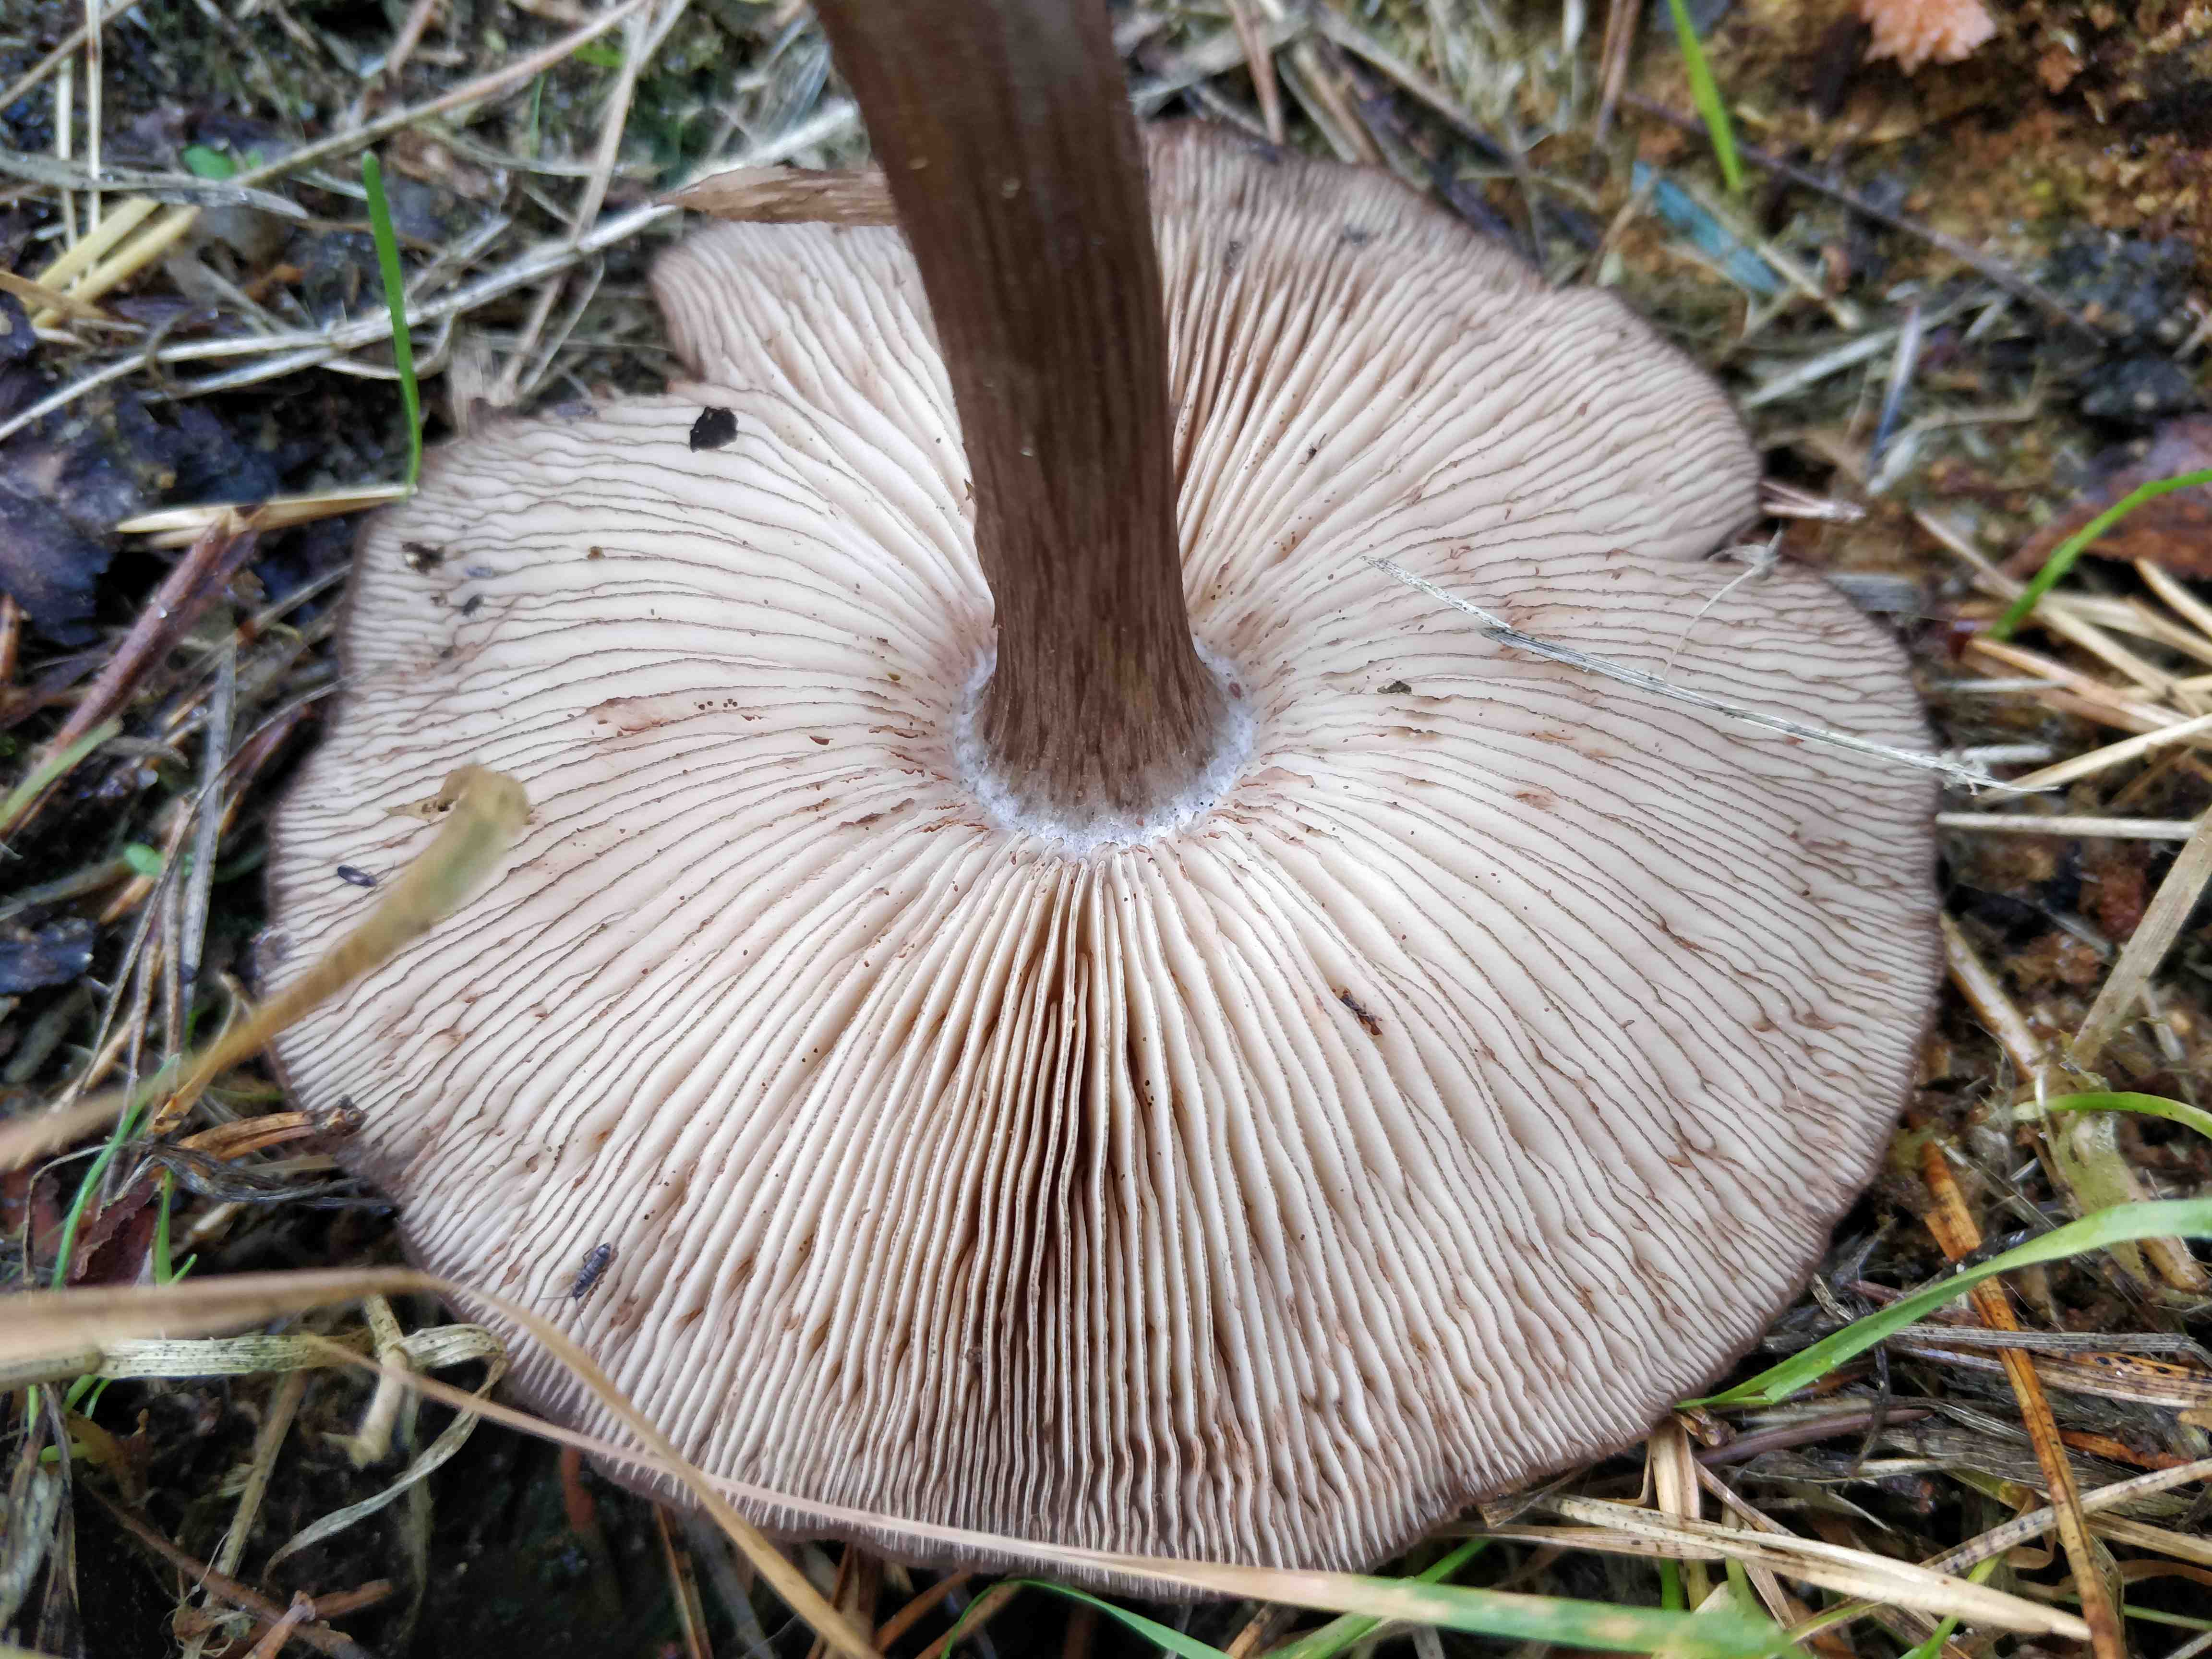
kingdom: Fungi
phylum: Basidiomycota
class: Agaricomycetes
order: Agaricales
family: Pluteaceae
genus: Pluteus
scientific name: Pluteus atromarginatus
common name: sortrandet skærmhat
